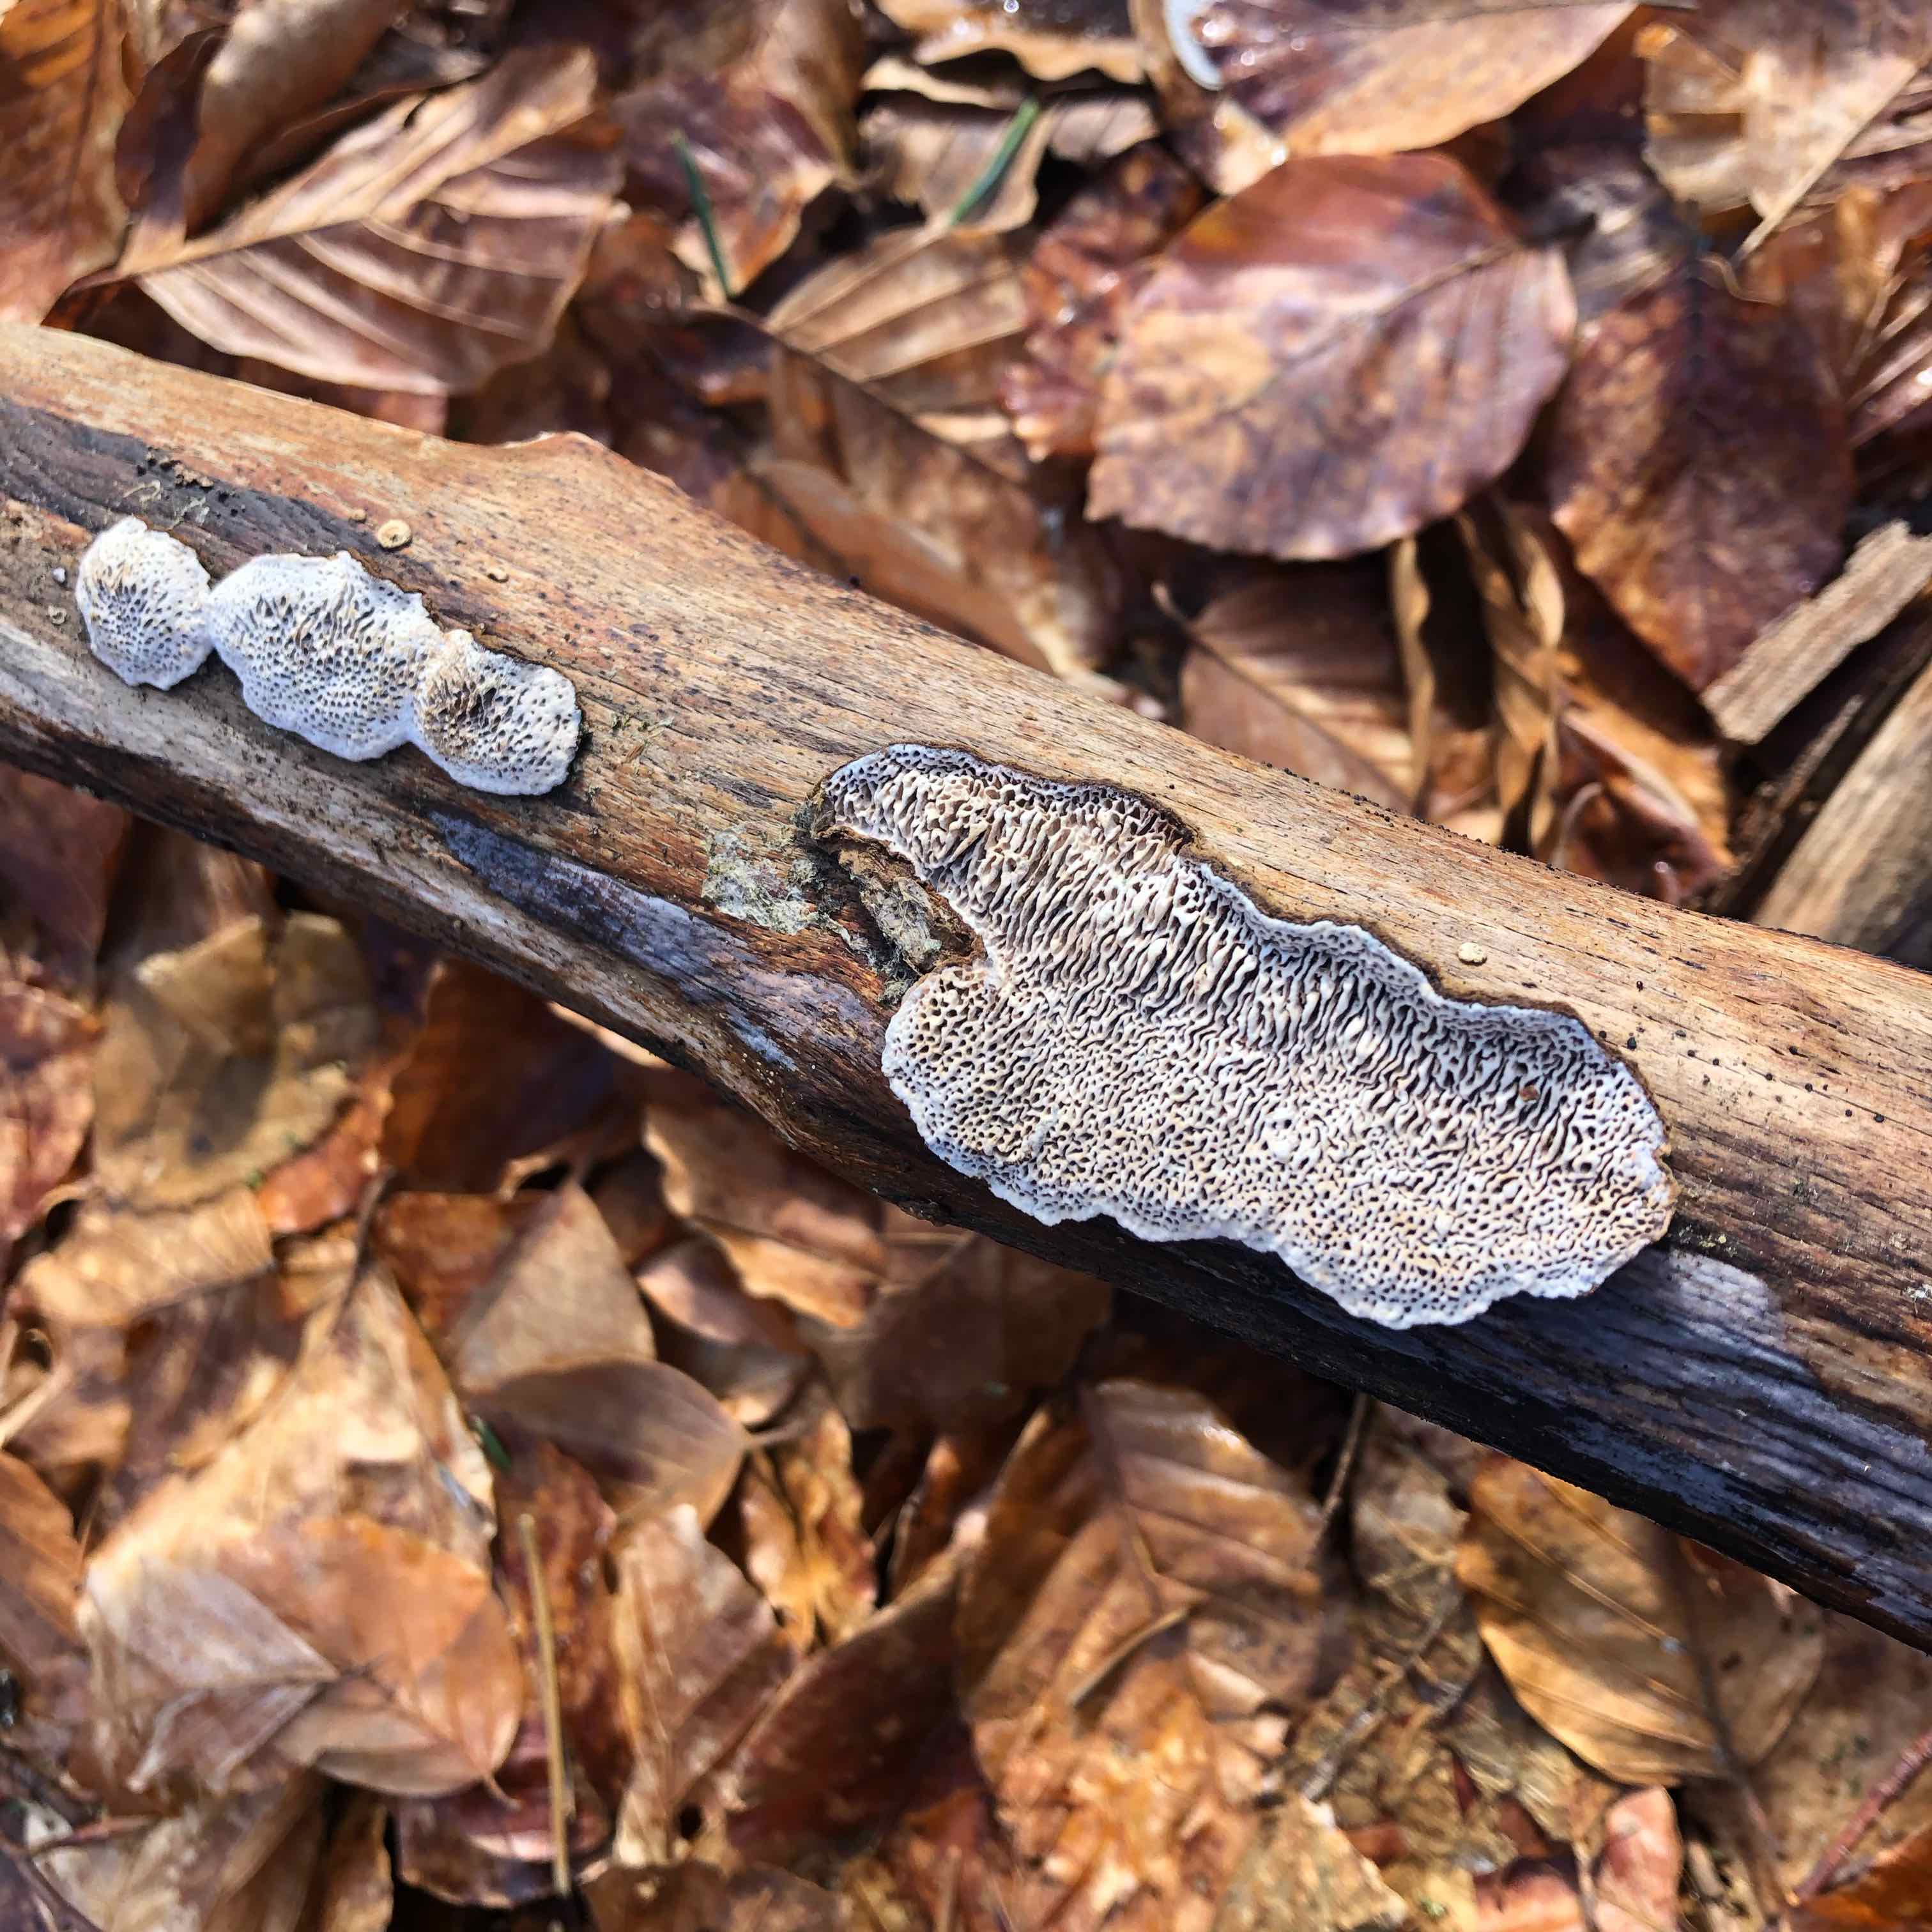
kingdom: Fungi
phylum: Basidiomycota
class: Agaricomycetes
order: Polyporales
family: Polyporaceae
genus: Podofomes
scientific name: Podofomes mollis
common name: blød begporesvamp
